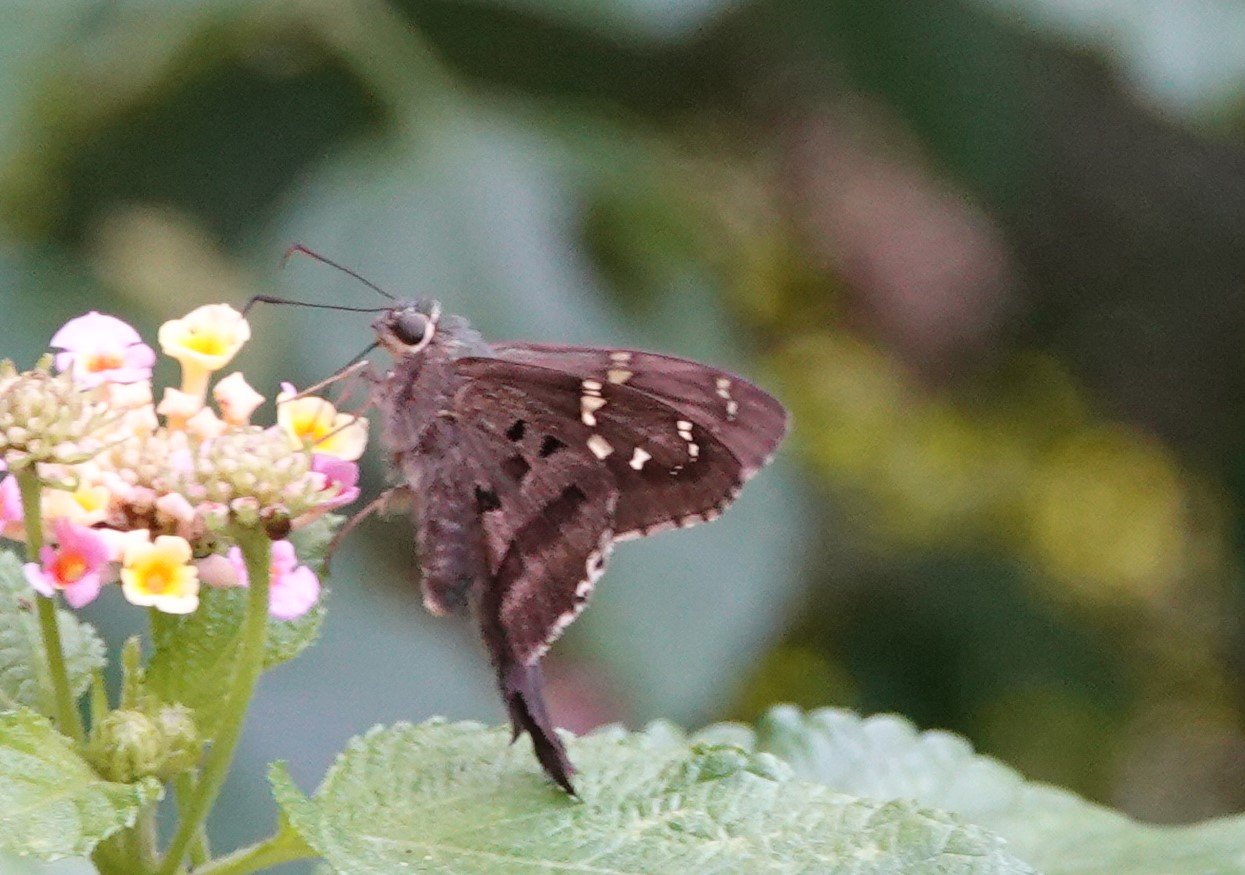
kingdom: Animalia
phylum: Arthropoda
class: Insecta
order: Lepidoptera
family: Hesperiidae
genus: Urbanus
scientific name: Urbanus proteus
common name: Long-tailed Skipper
